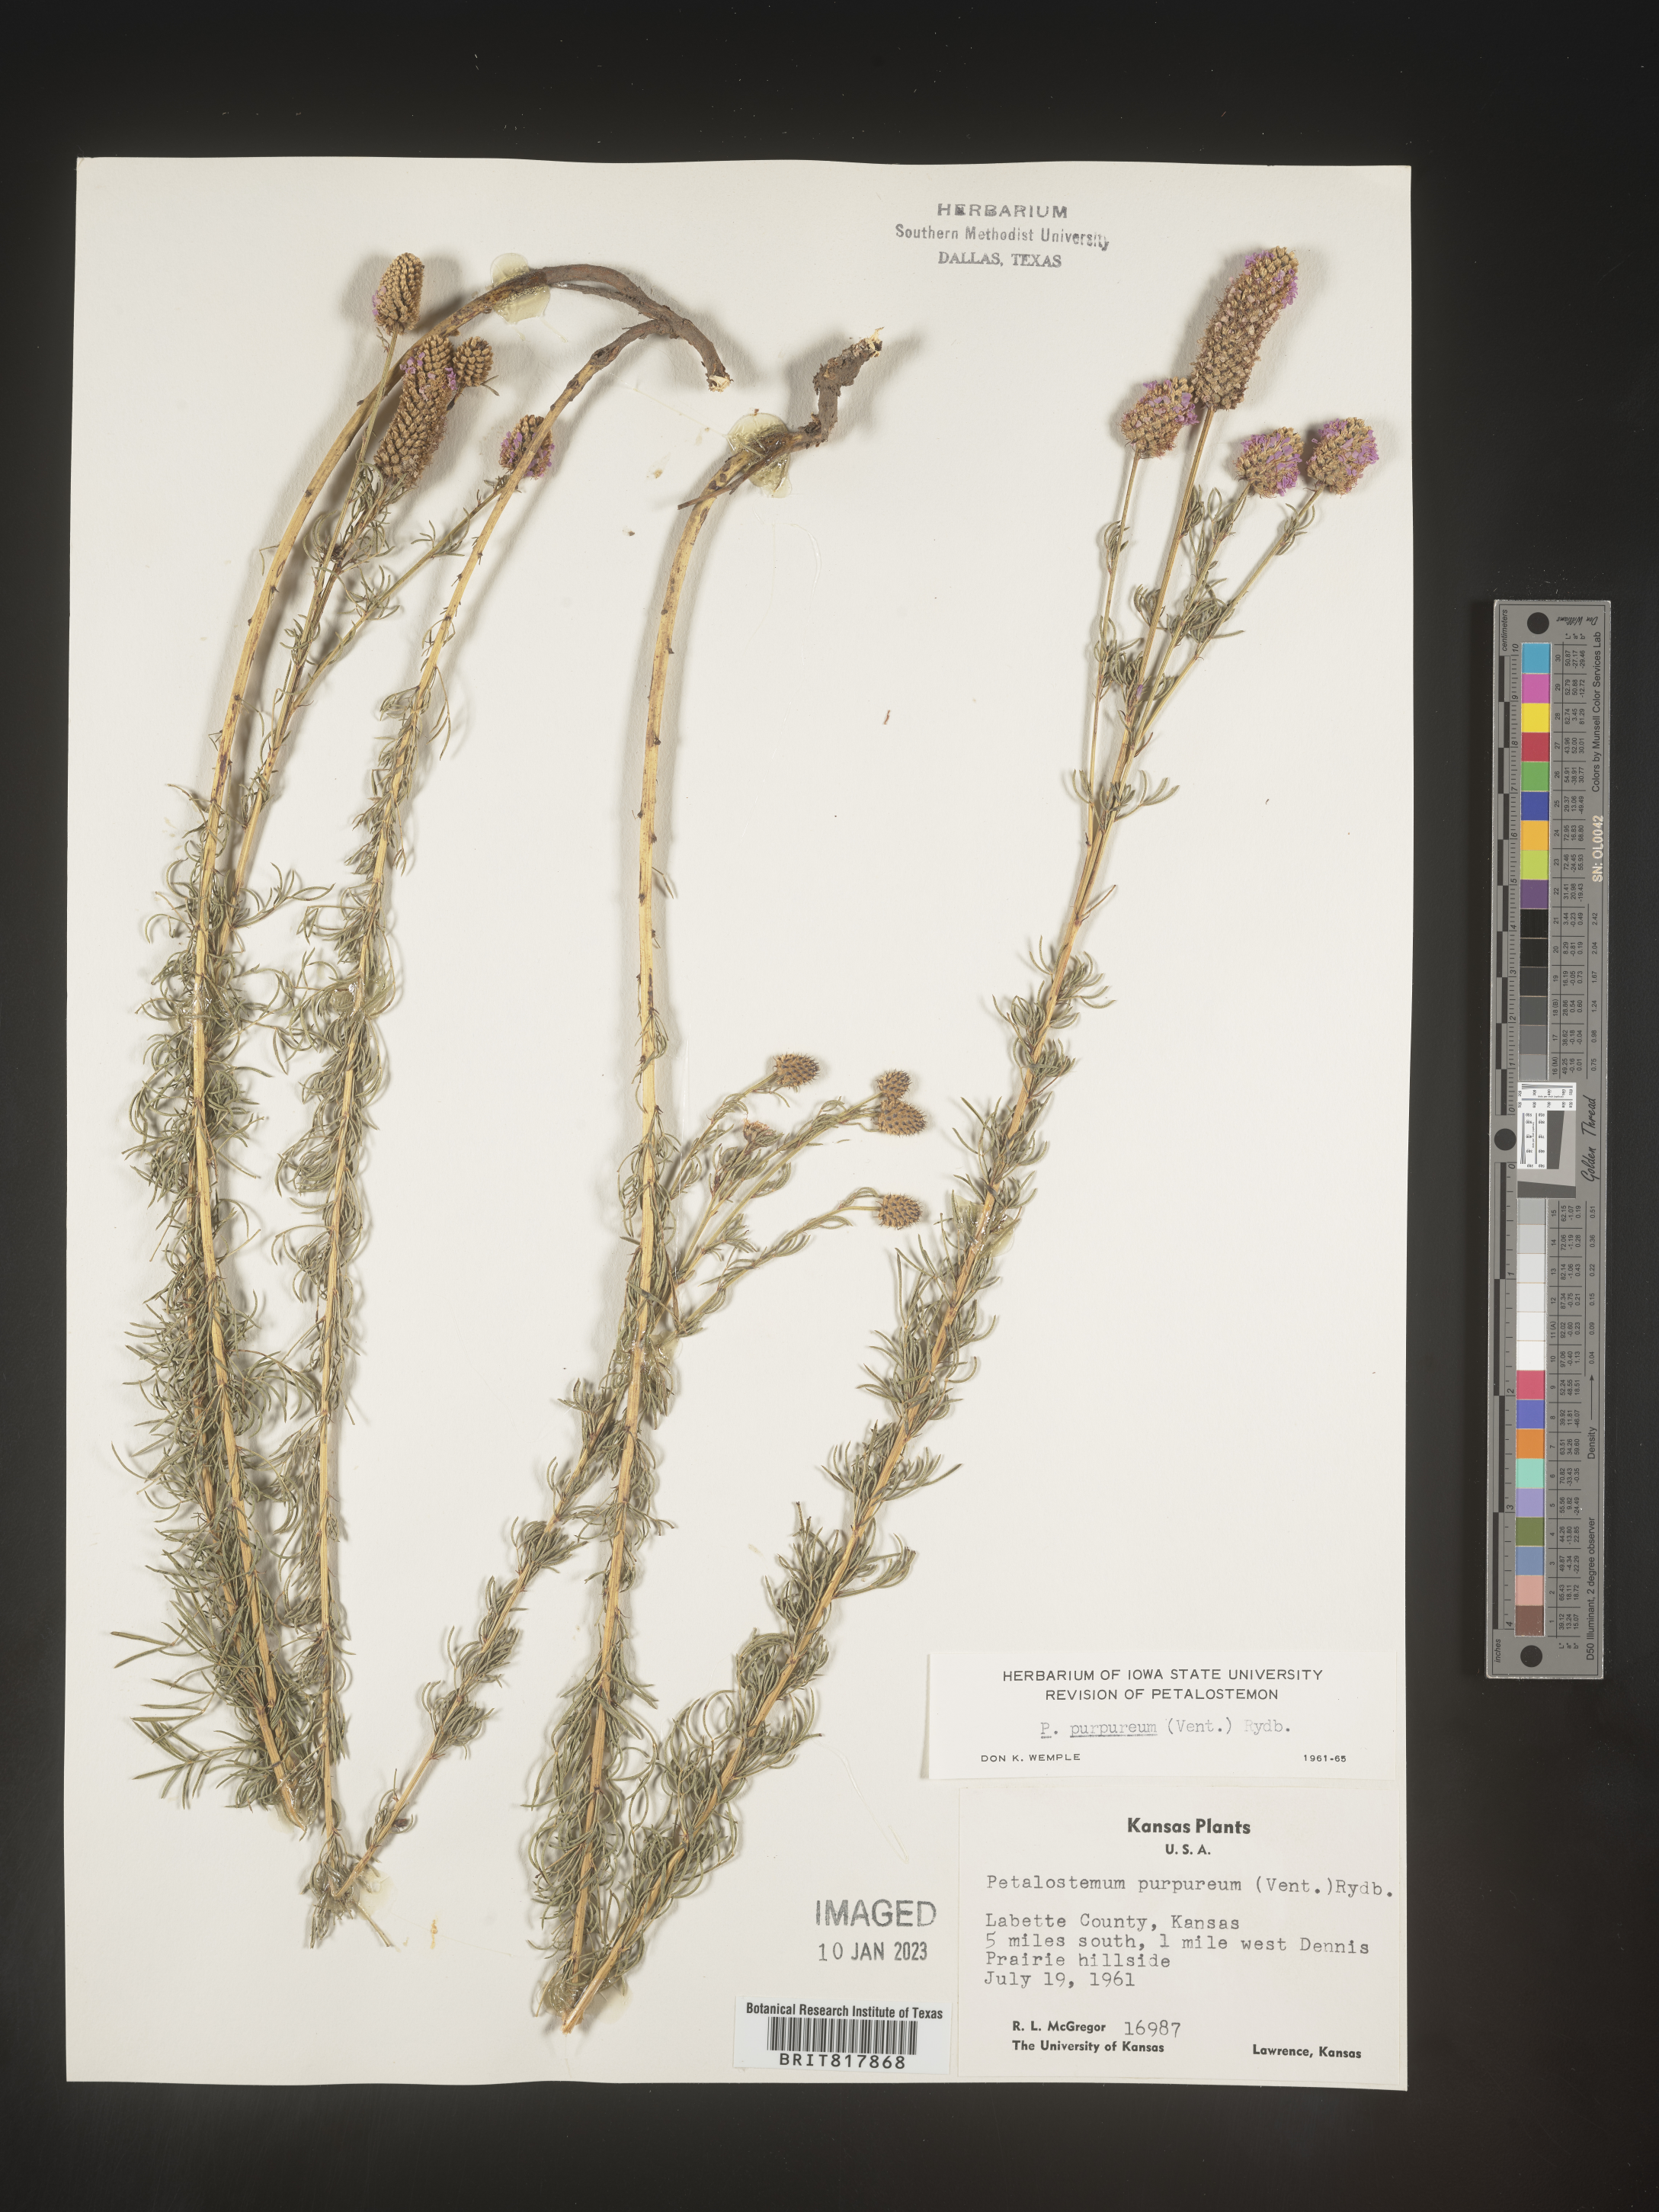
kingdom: Plantae
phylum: Tracheophyta
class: Magnoliopsida
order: Fabales
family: Fabaceae
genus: Dalea
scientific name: Dalea purpurea
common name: Purple prairie-clover
